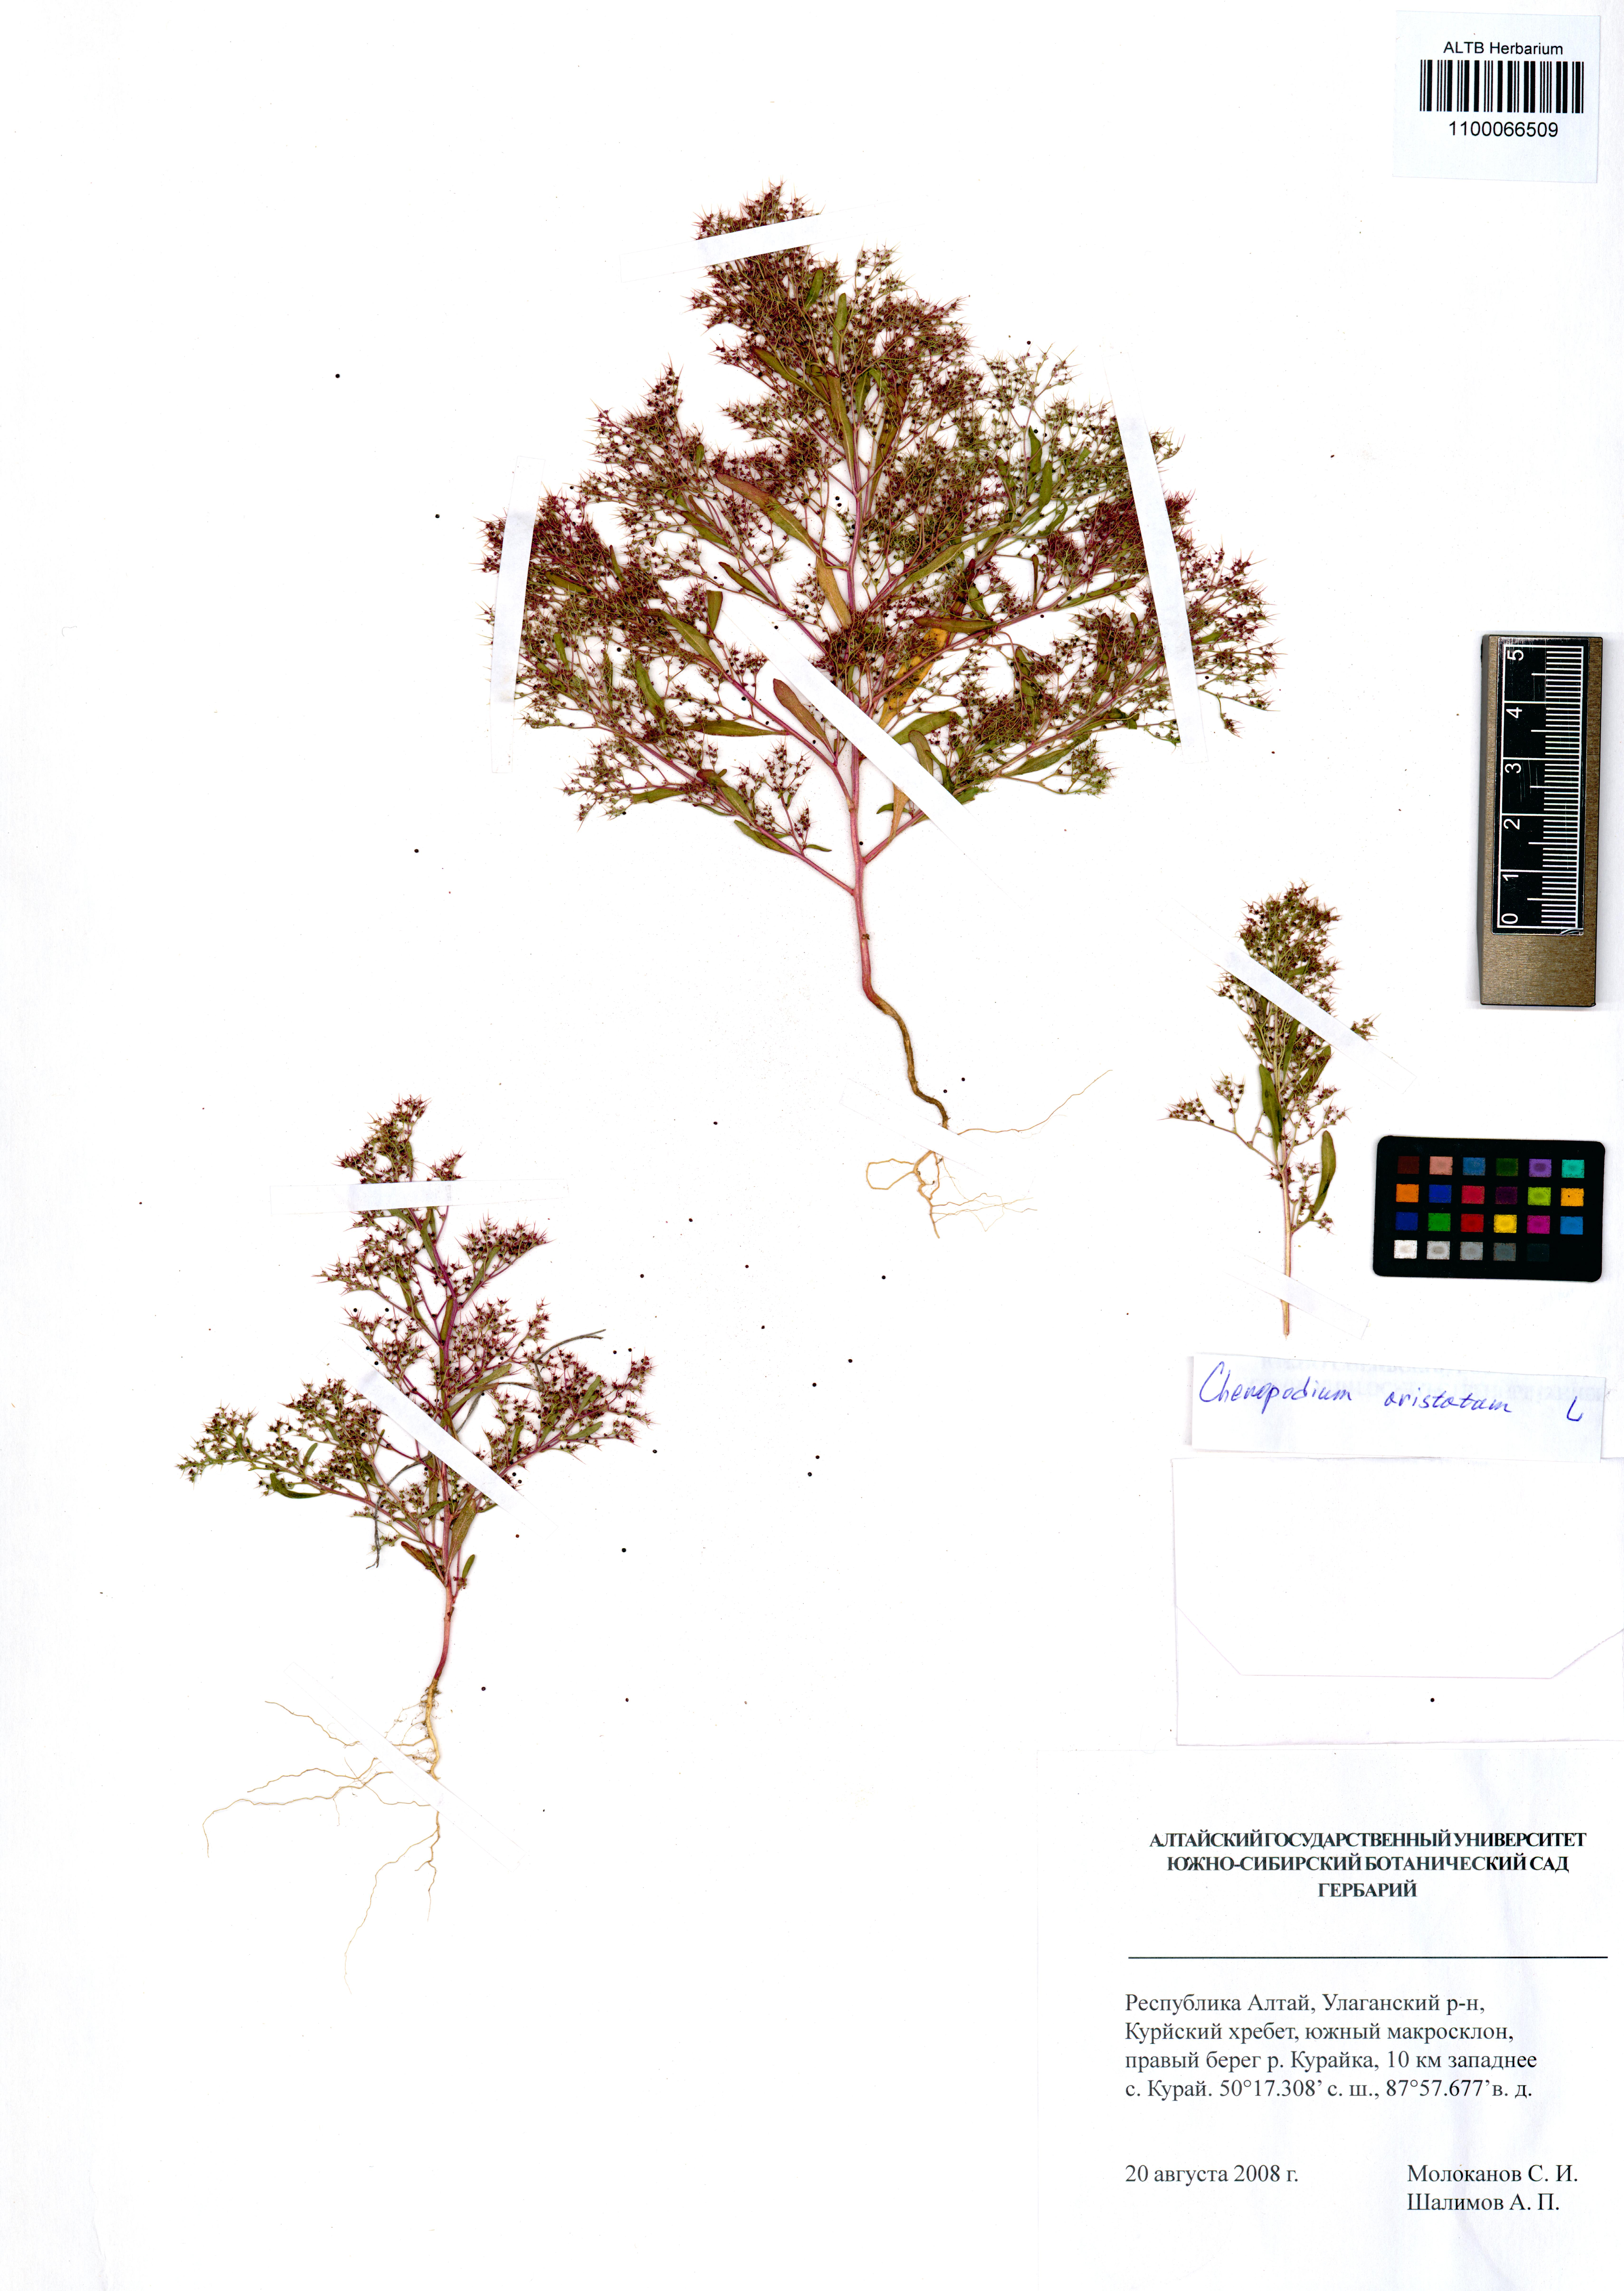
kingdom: Plantae
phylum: Tracheophyta
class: Magnoliopsida
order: Boraginales
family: Boraginaceae
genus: Myosotis
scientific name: Myosotis imitata
